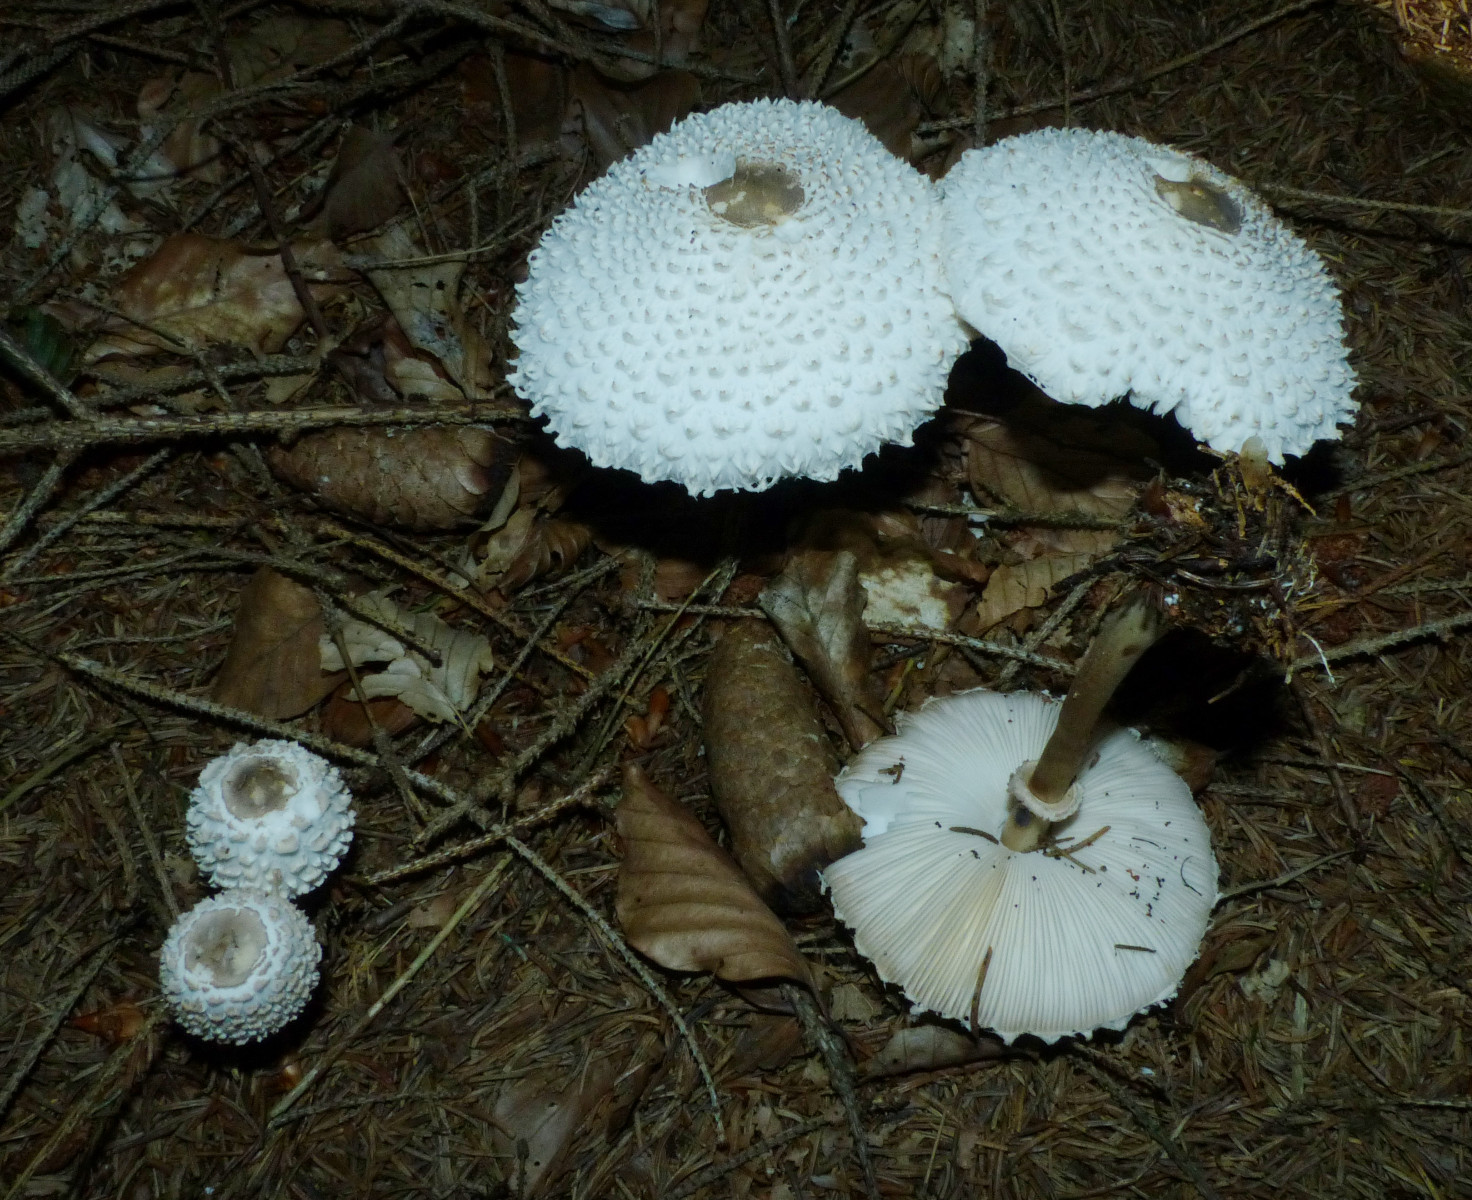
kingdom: Fungi
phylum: Basidiomycota
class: Agaricomycetes
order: Agaricales
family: Agaricaceae
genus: Leucoagaricus
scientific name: Leucoagaricus nympharum
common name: gran-silkehat
